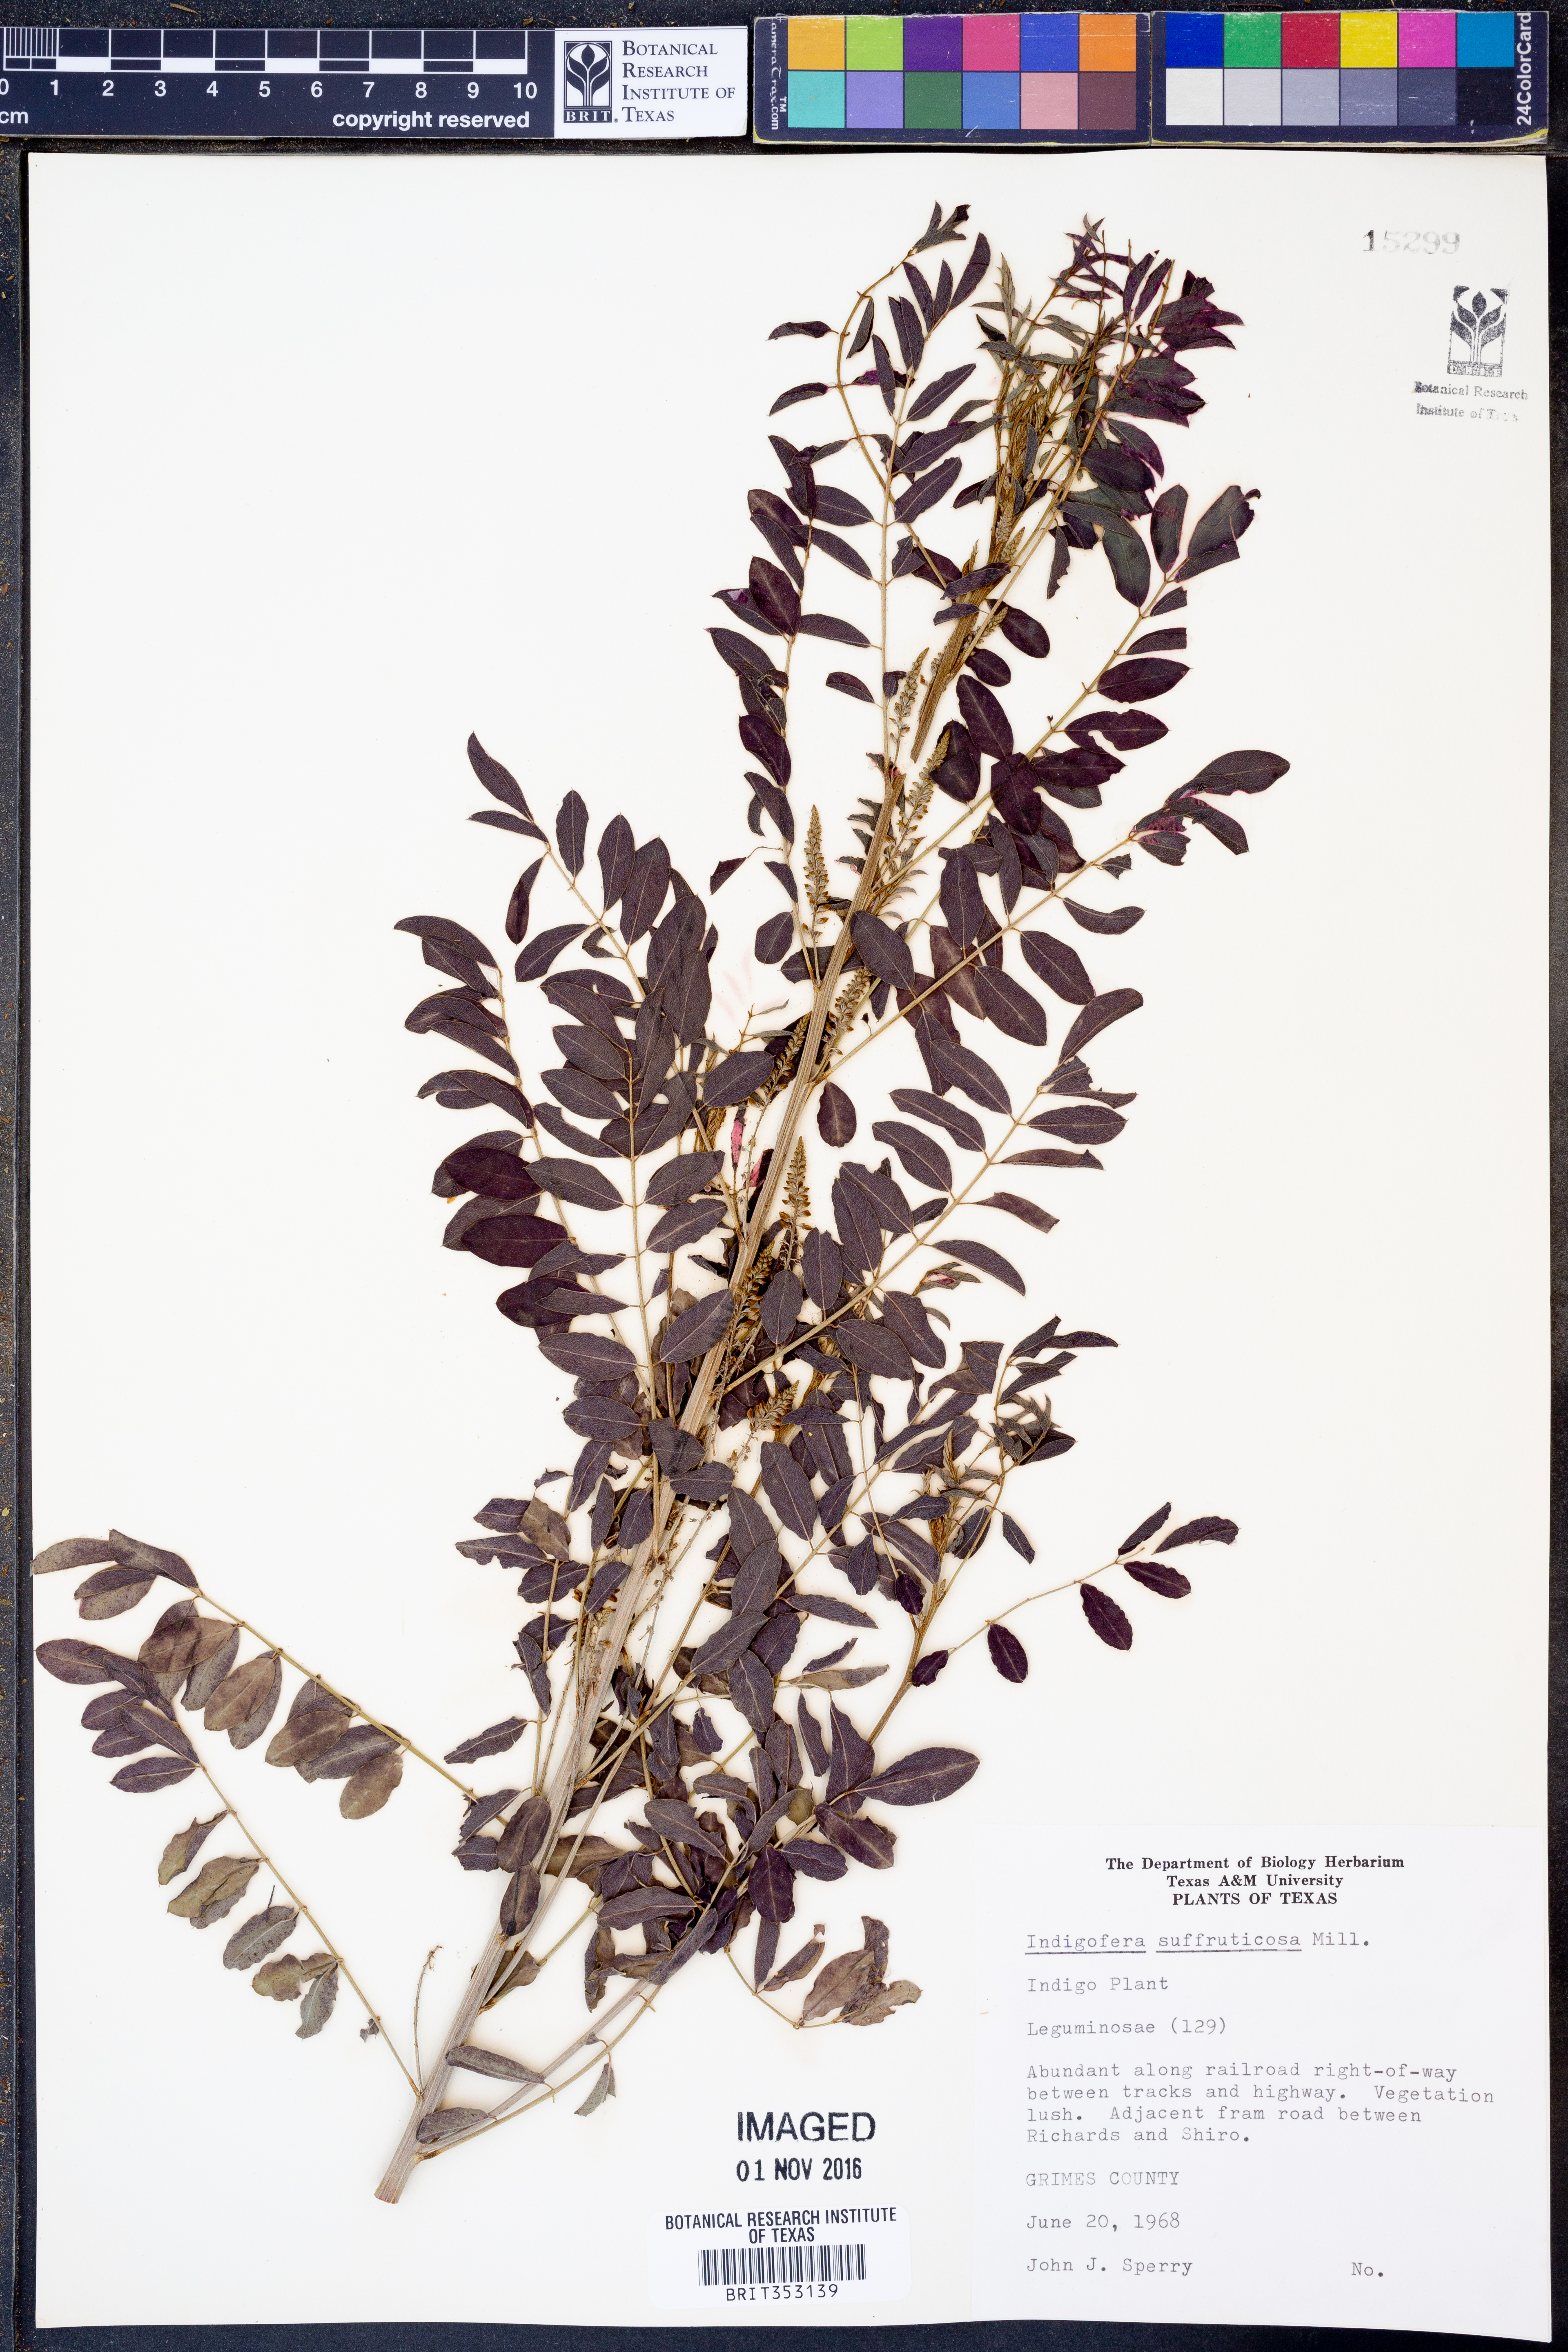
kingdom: Plantae
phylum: Tracheophyta
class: Magnoliopsida
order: Fabales
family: Fabaceae
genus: Indigofera
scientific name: Indigofera suffruticosa
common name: Anil de pasto
